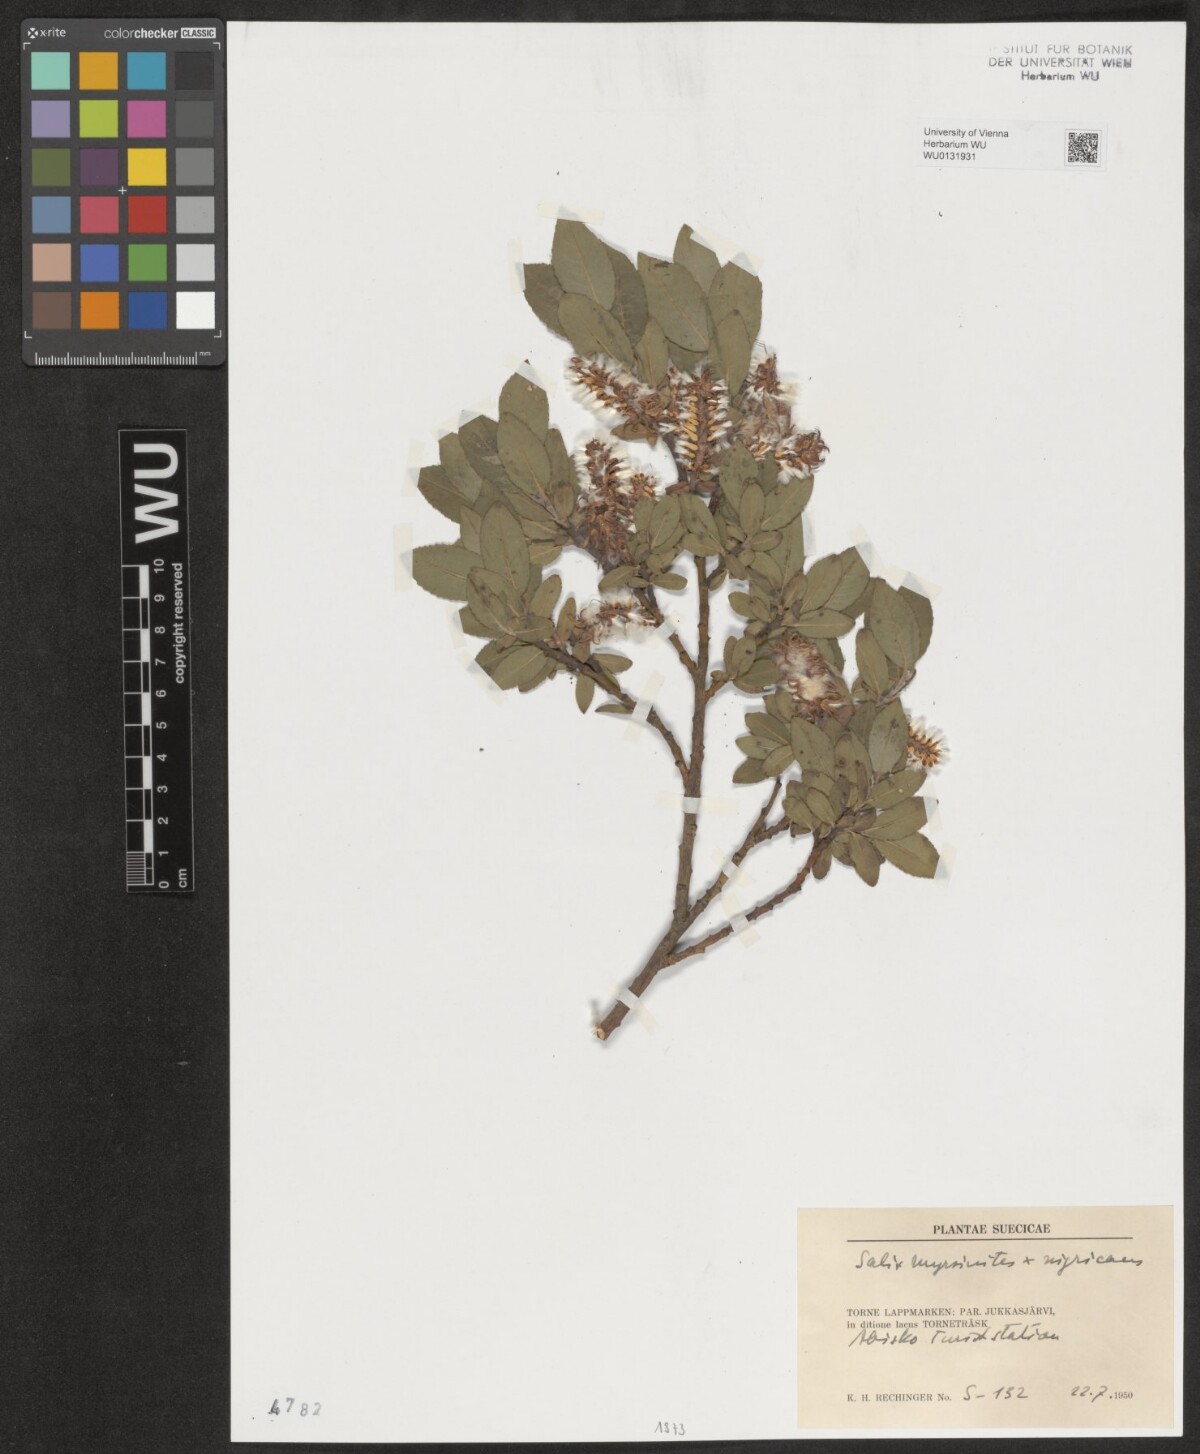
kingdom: Plantae
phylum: Tracheophyta
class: Magnoliopsida
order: Malpighiales
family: Salicaceae
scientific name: Salicaceae
